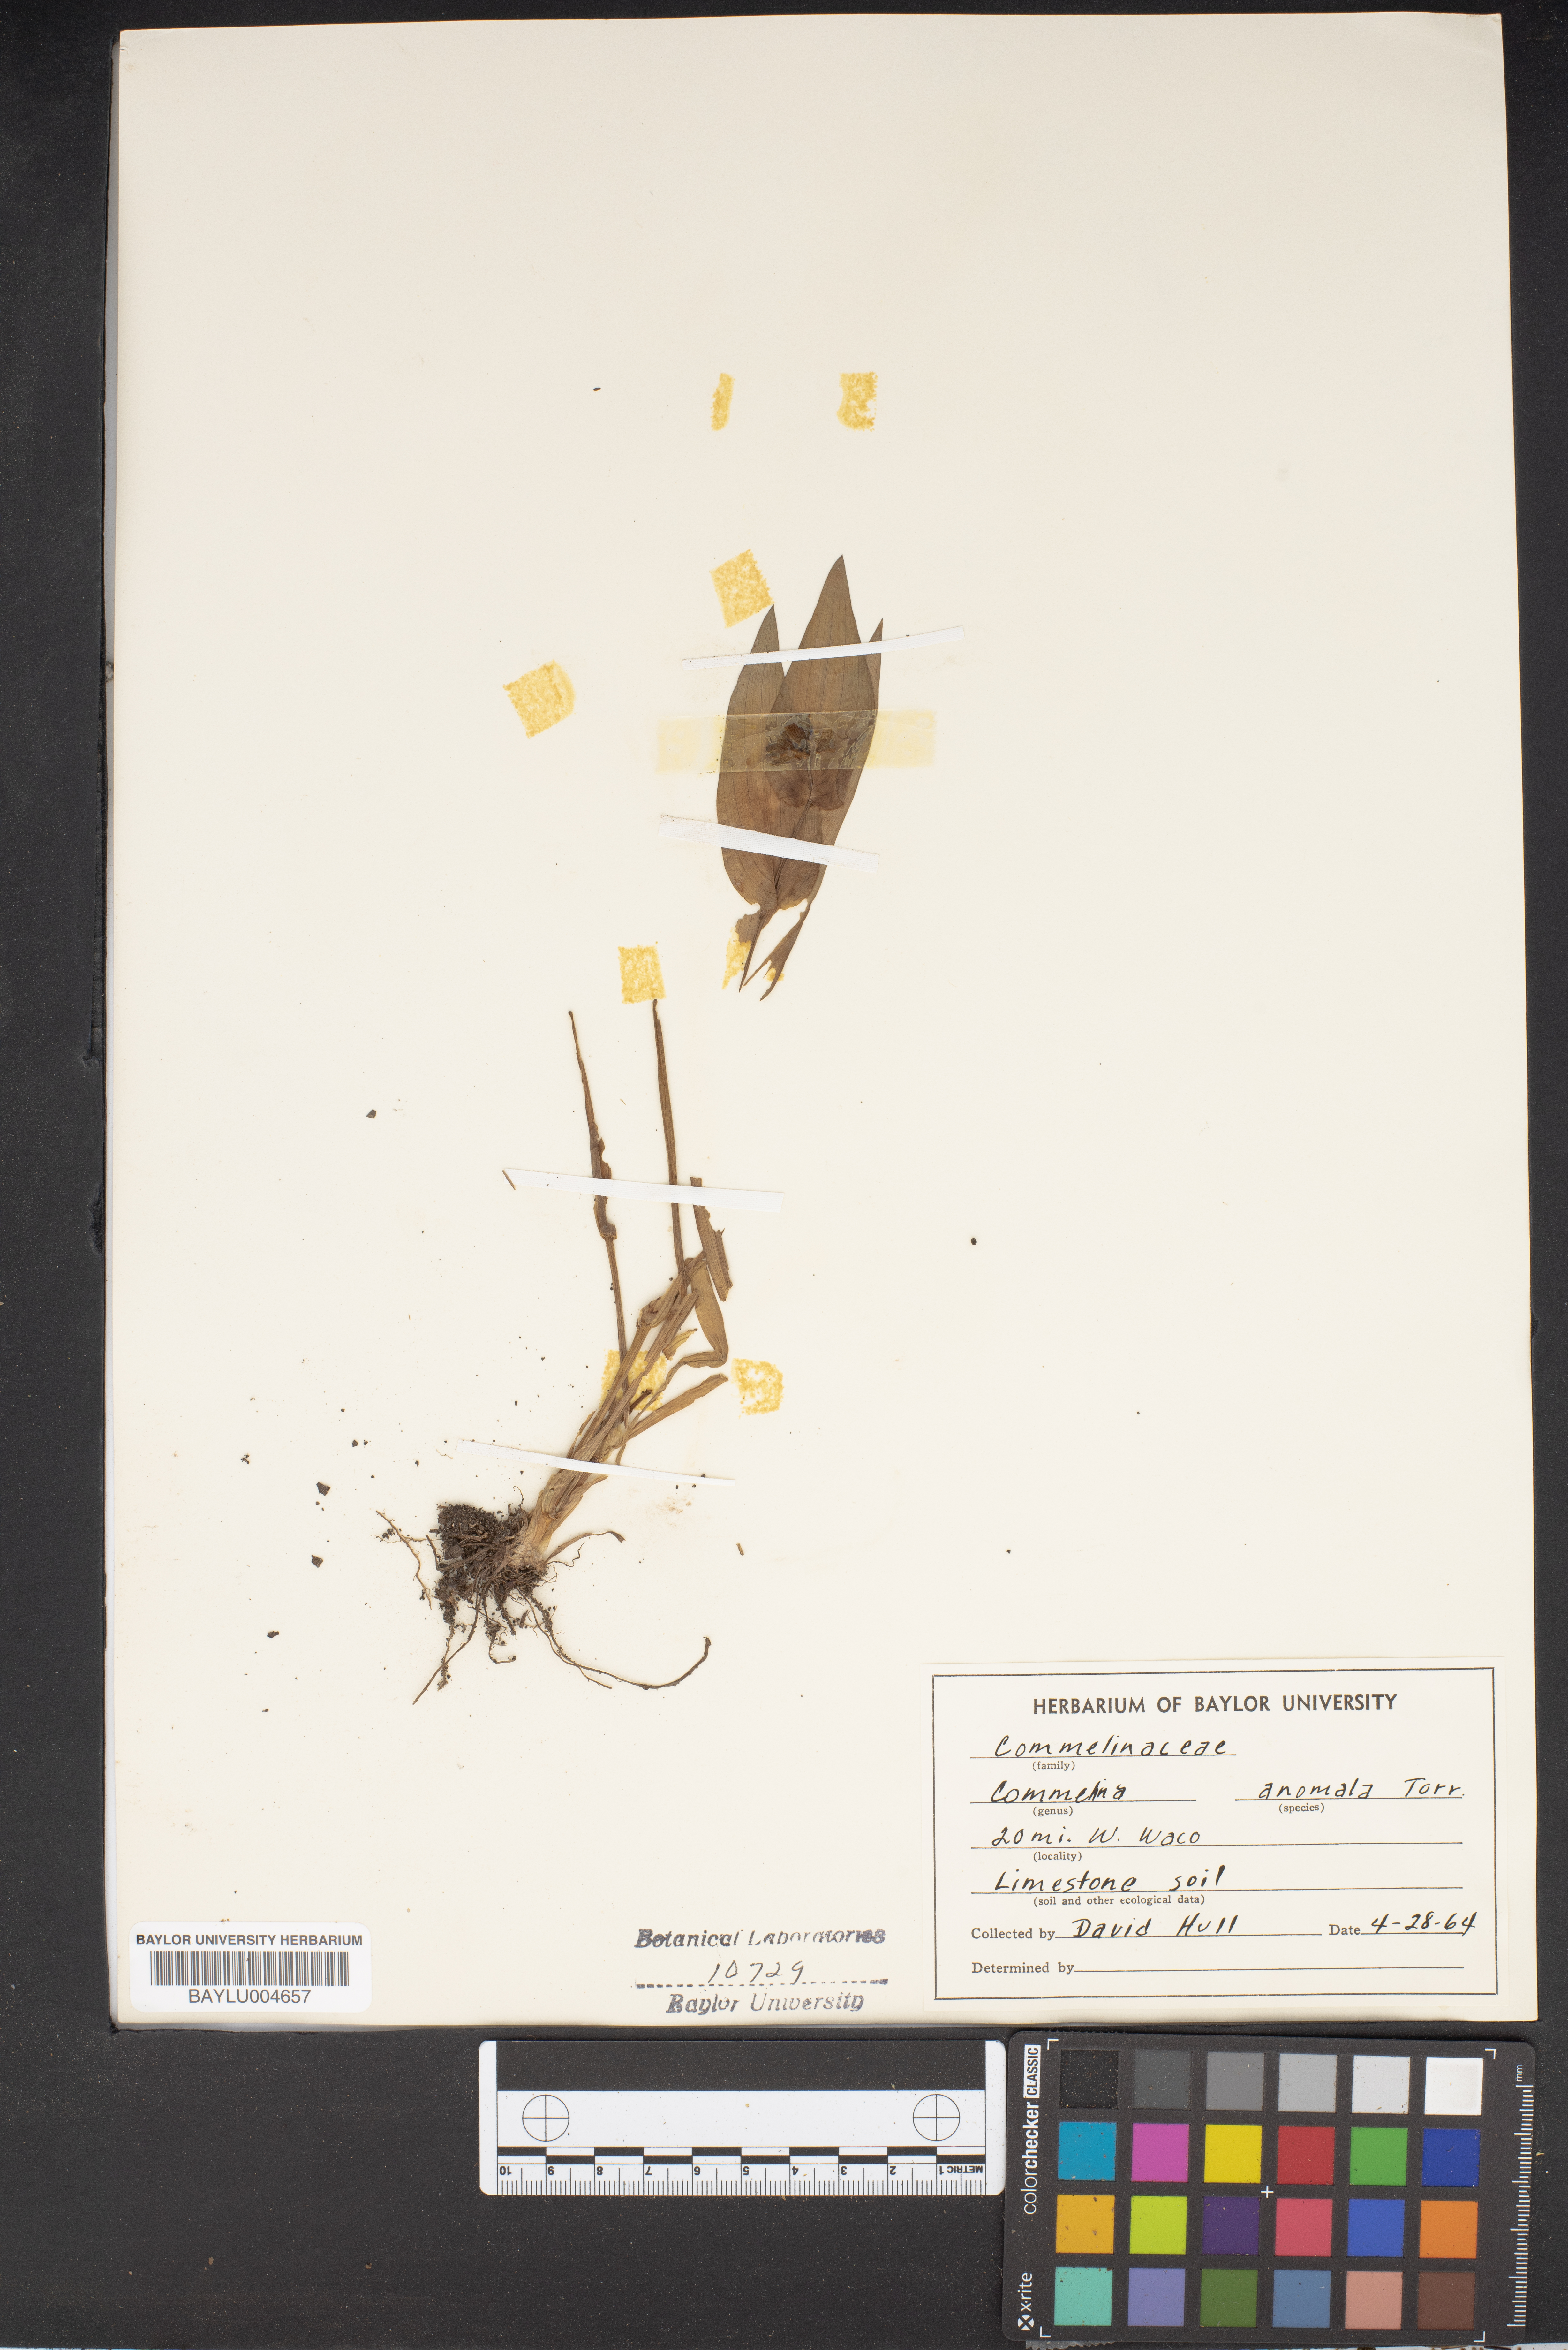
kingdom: Plantae
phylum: Tracheophyta
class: Liliopsida
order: Commelinales
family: Commelinaceae
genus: Tinantia
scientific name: Tinantia anomala
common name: False dayflower
